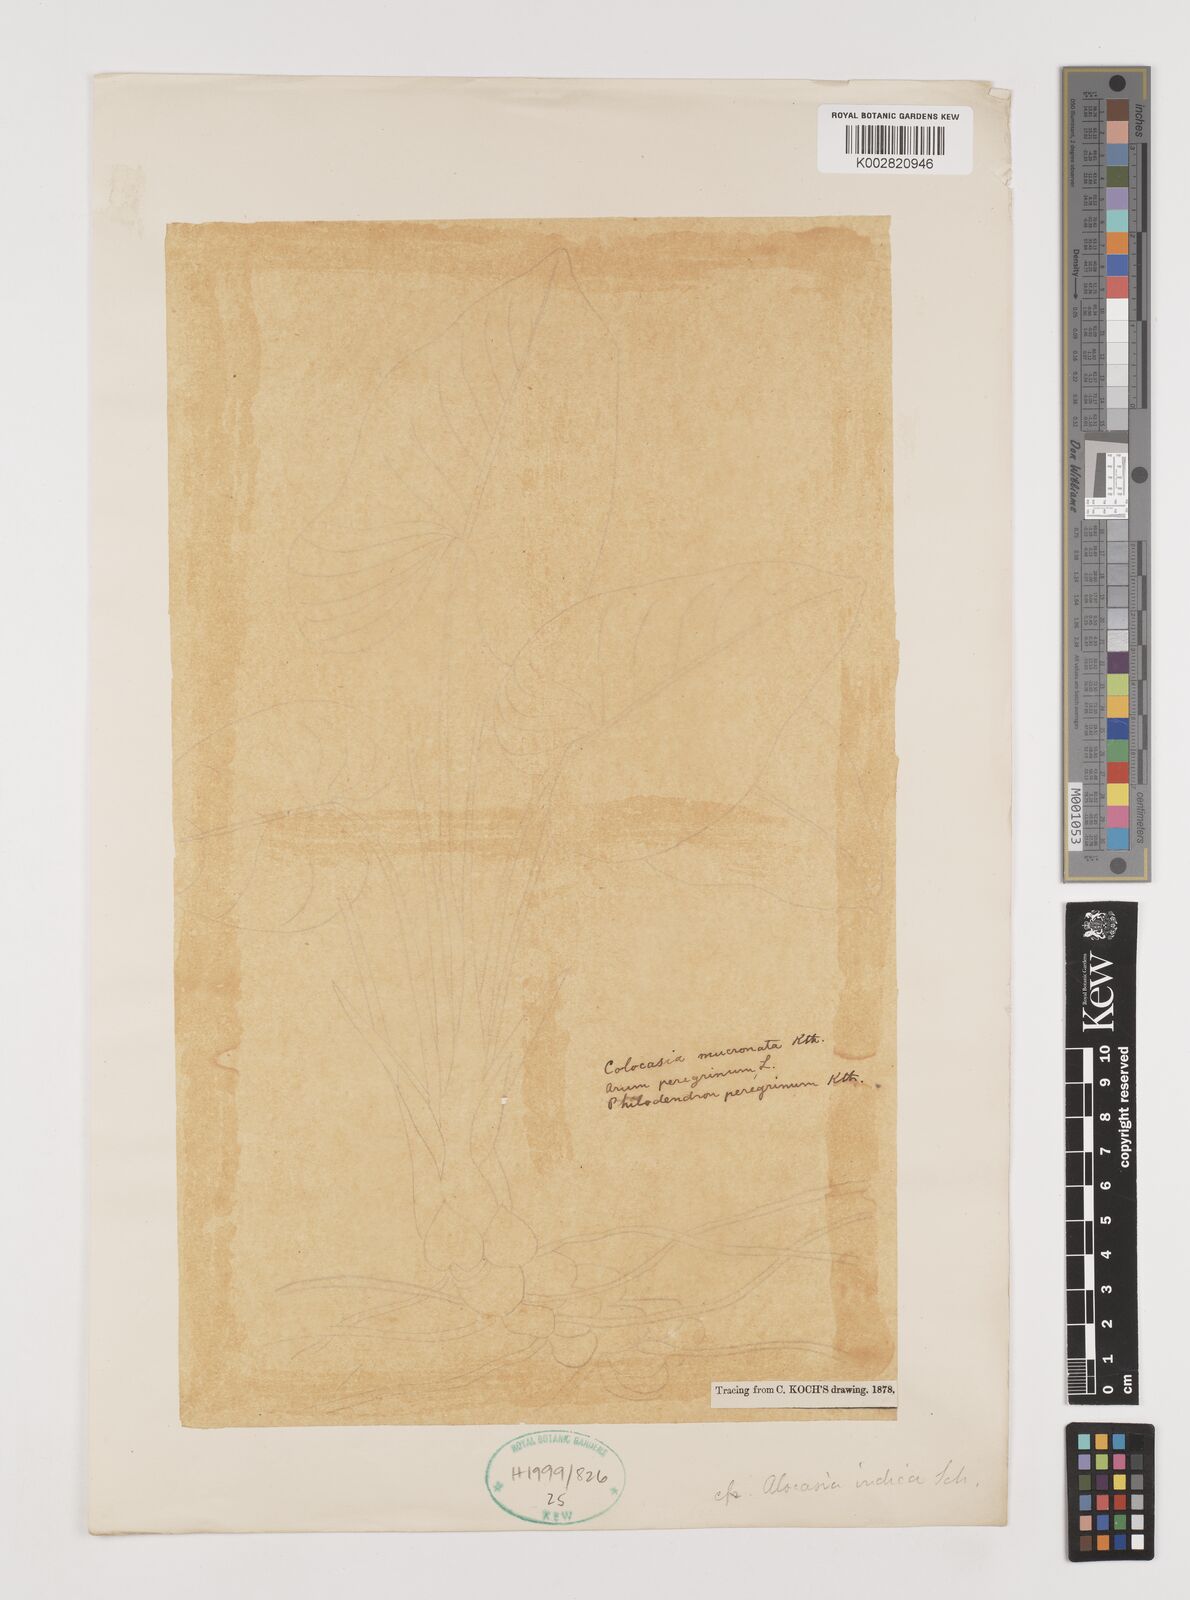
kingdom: Plantae
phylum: Tracheophyta
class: Liliopsida
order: Alismatales
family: Araceae
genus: Alocasia
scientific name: Alocasia macrorrhizos
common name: Giant taro
